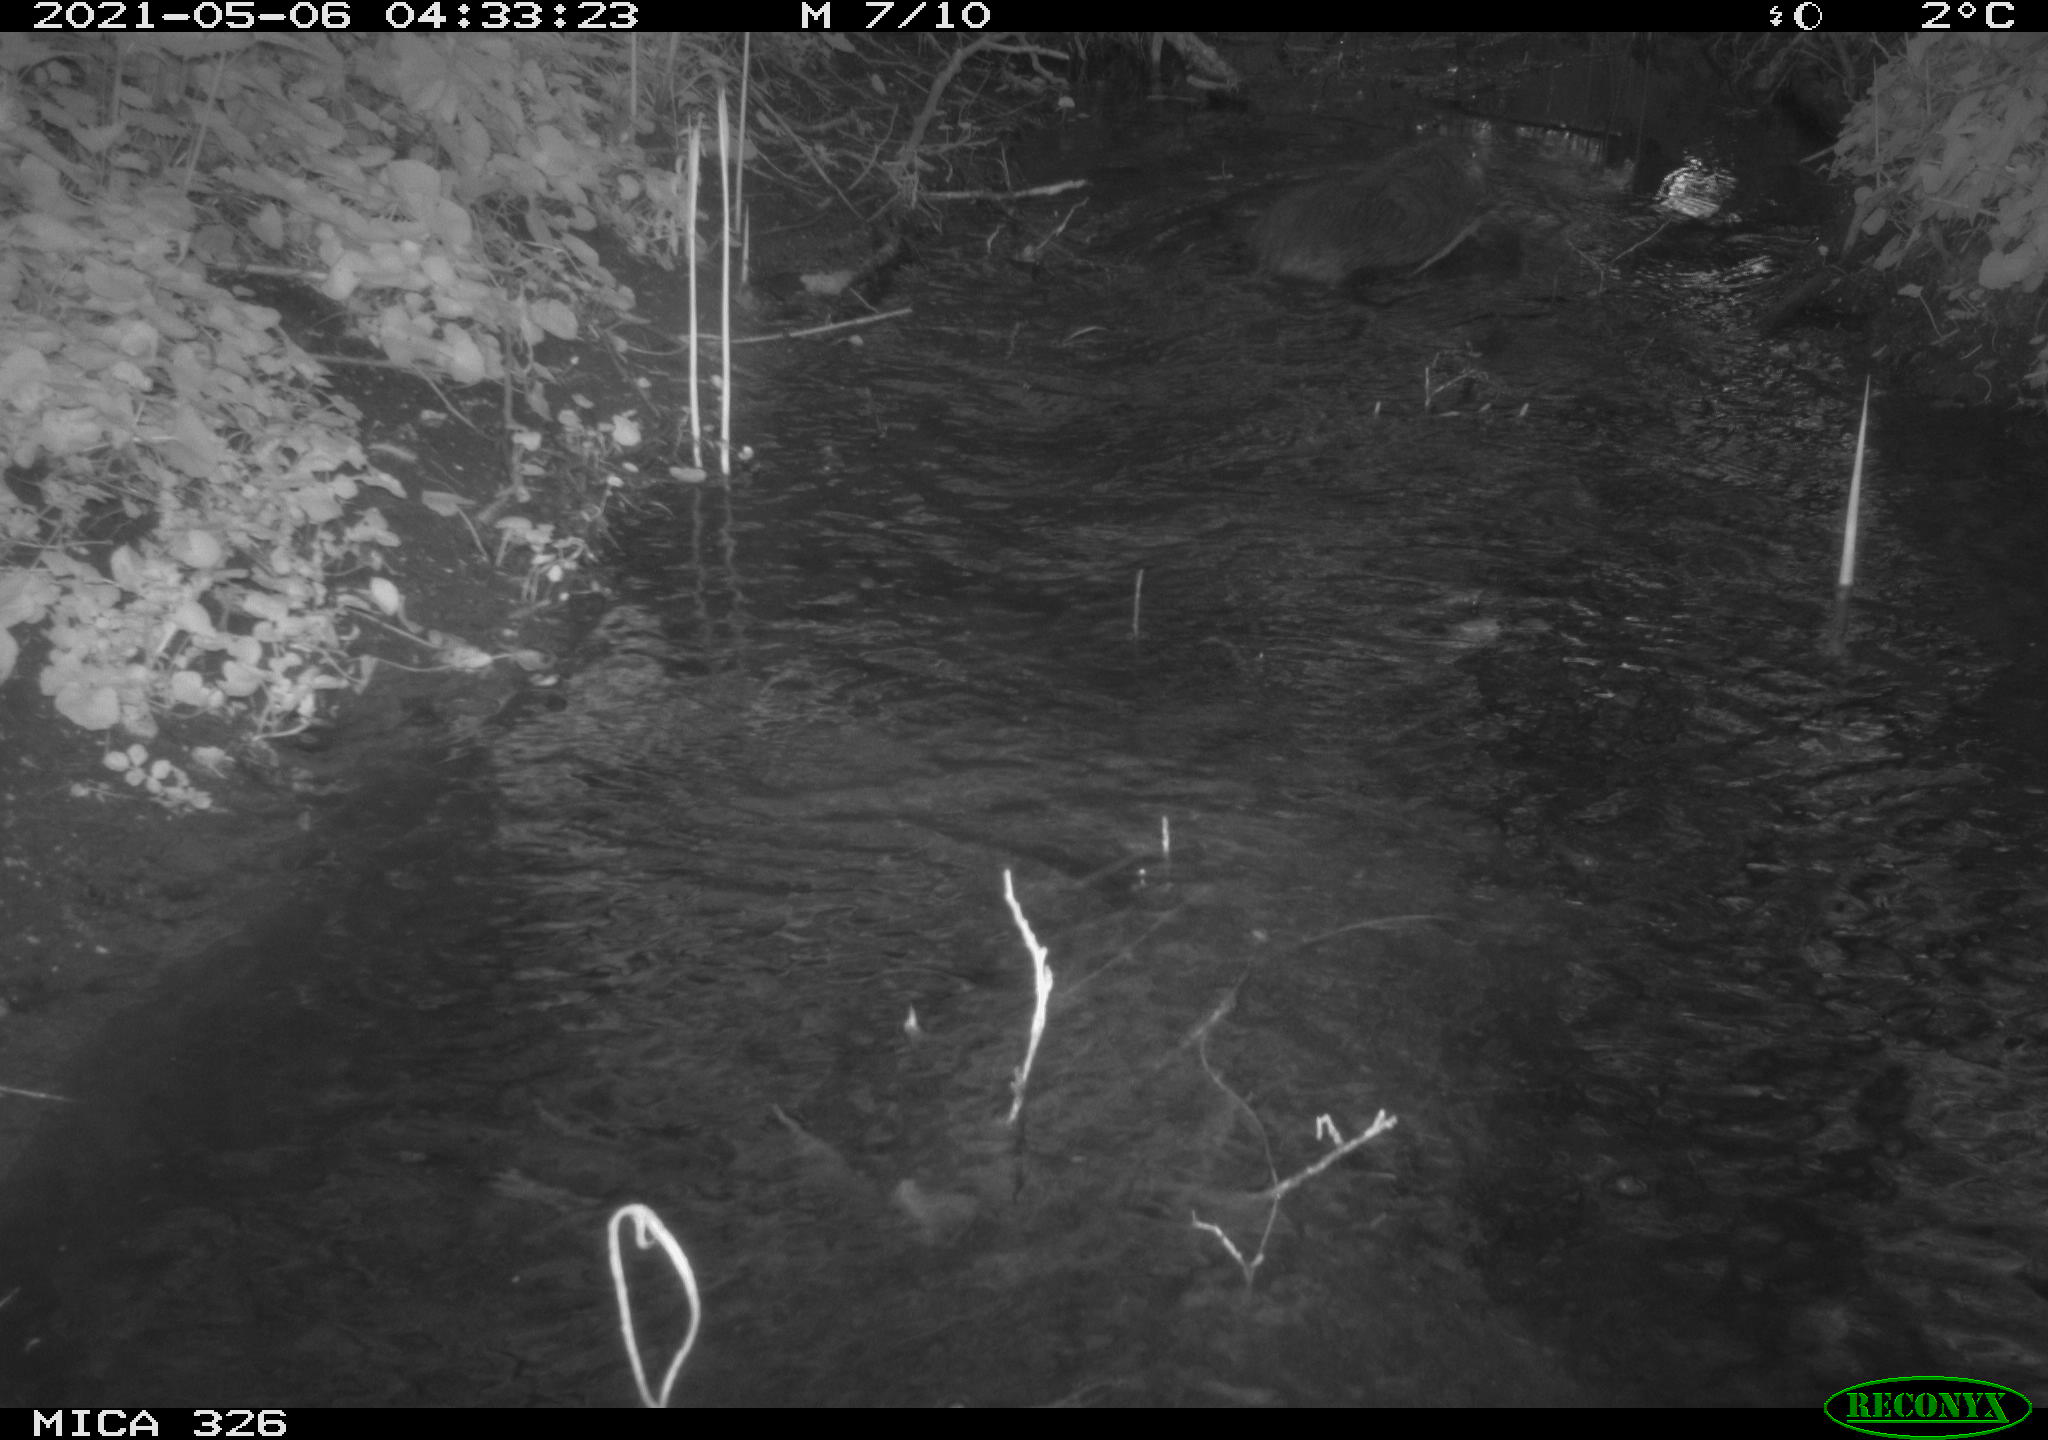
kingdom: Animalia
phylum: Chordata
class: Mammalia
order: Rodentia
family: Myocastoridae
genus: Myocastor
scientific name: Myocastor coypus
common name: Coypu
